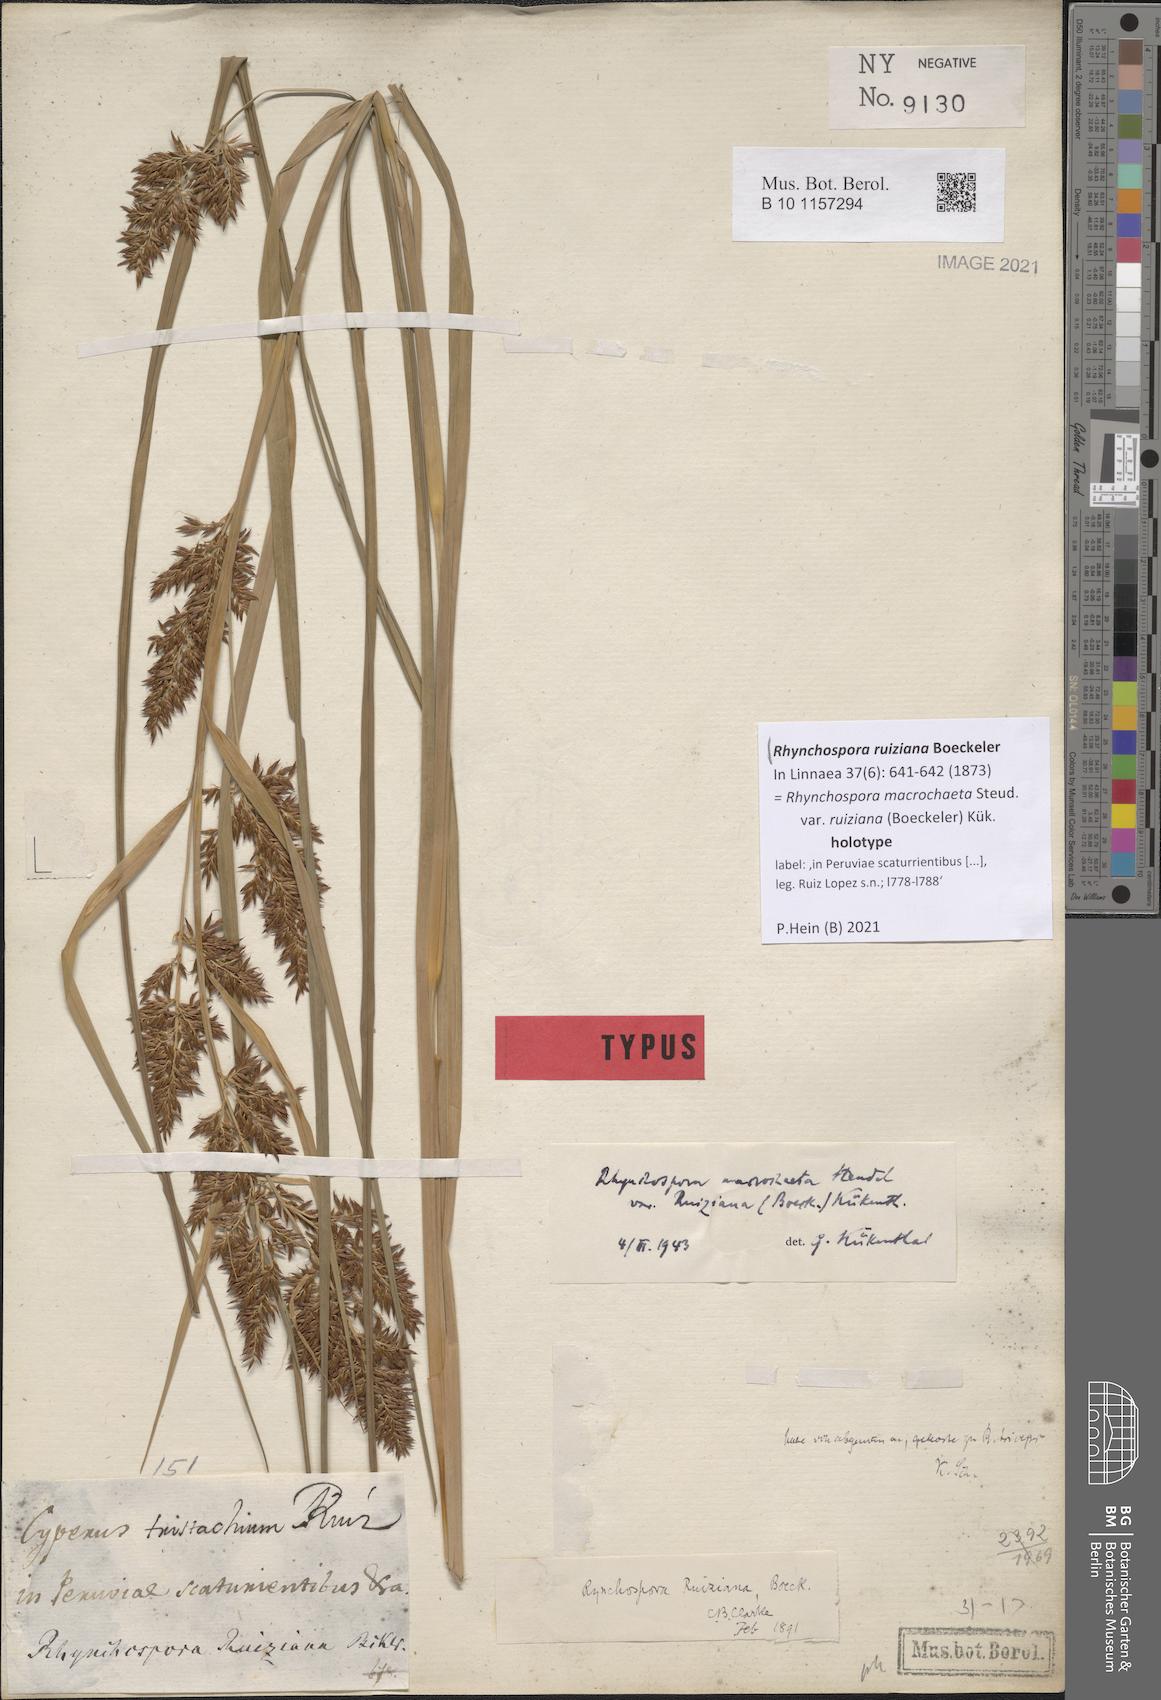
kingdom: Plantae
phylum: Tracheophyta
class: Liliopsida
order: Poales
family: Cyperaceae
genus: Rhynchospora
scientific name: Rhynchospora ruiziana
